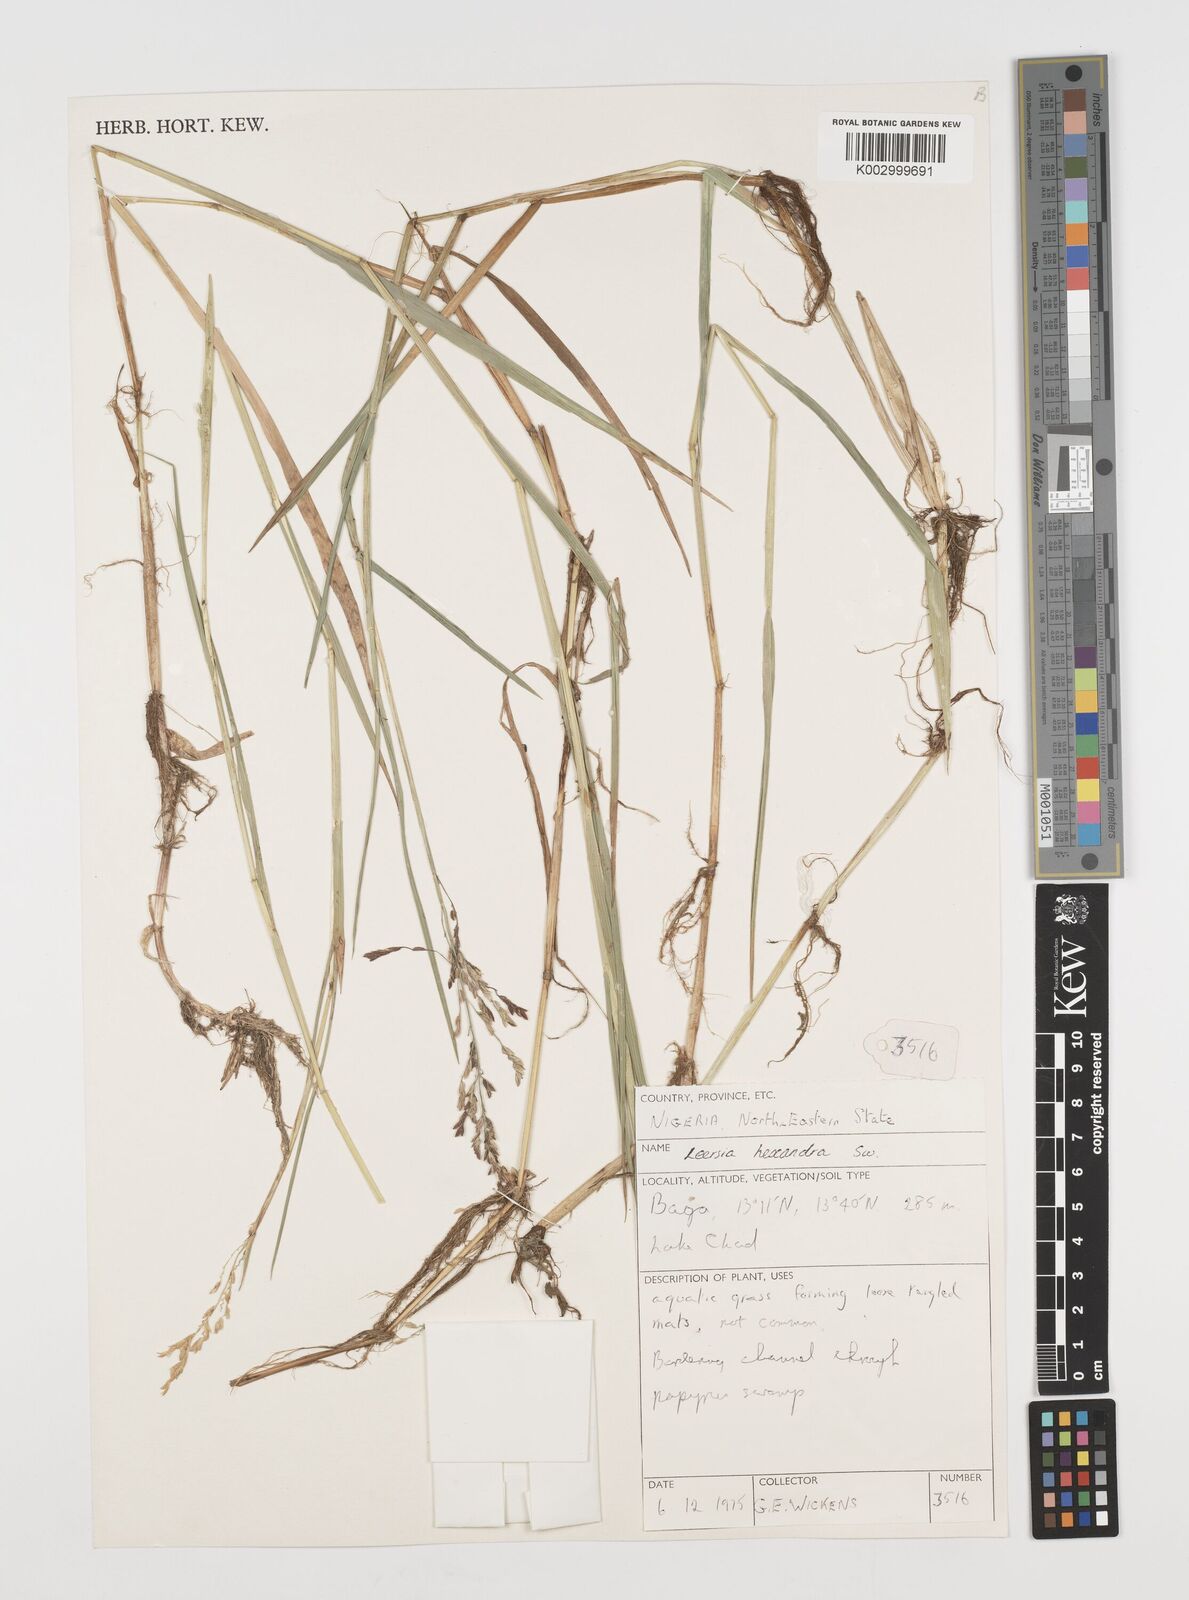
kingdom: Plantae
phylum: Tracheophyta
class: Liliopsida
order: Poales
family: Poaceae
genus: Leersia
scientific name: Leersia hexandra
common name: Southern cut grass
